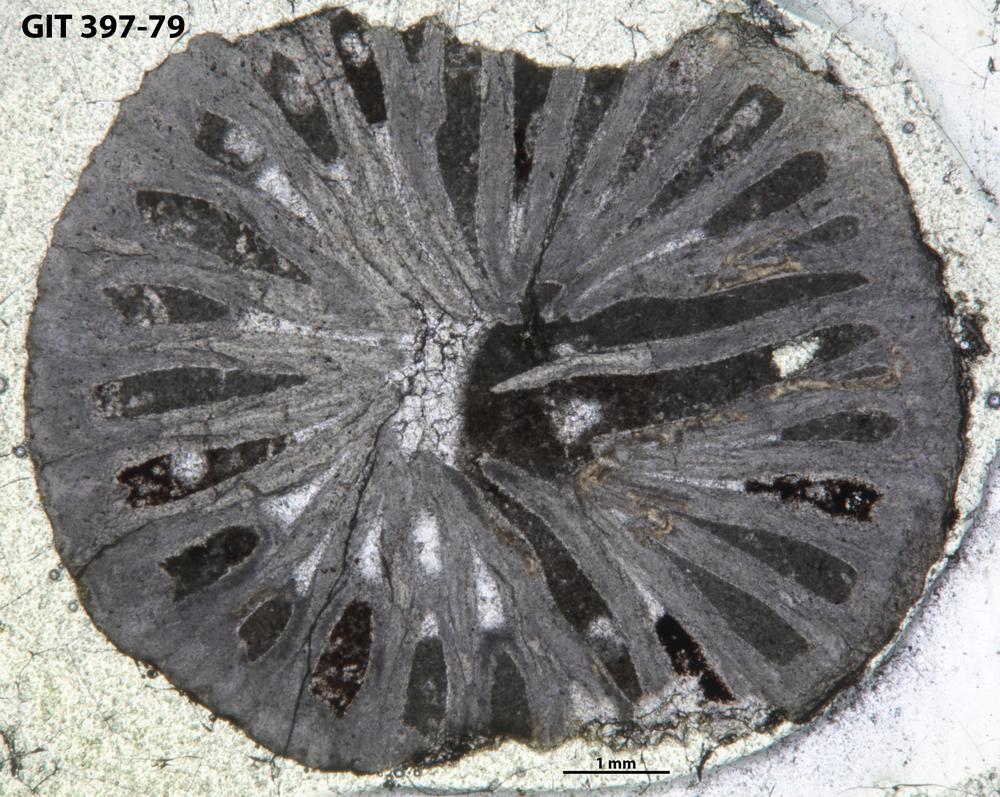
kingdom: Animalia
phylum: Cnidaria
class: Anthozoa
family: Streptelasmatidae
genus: Rhegmaphyllum
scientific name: Rhegmaphyllum
